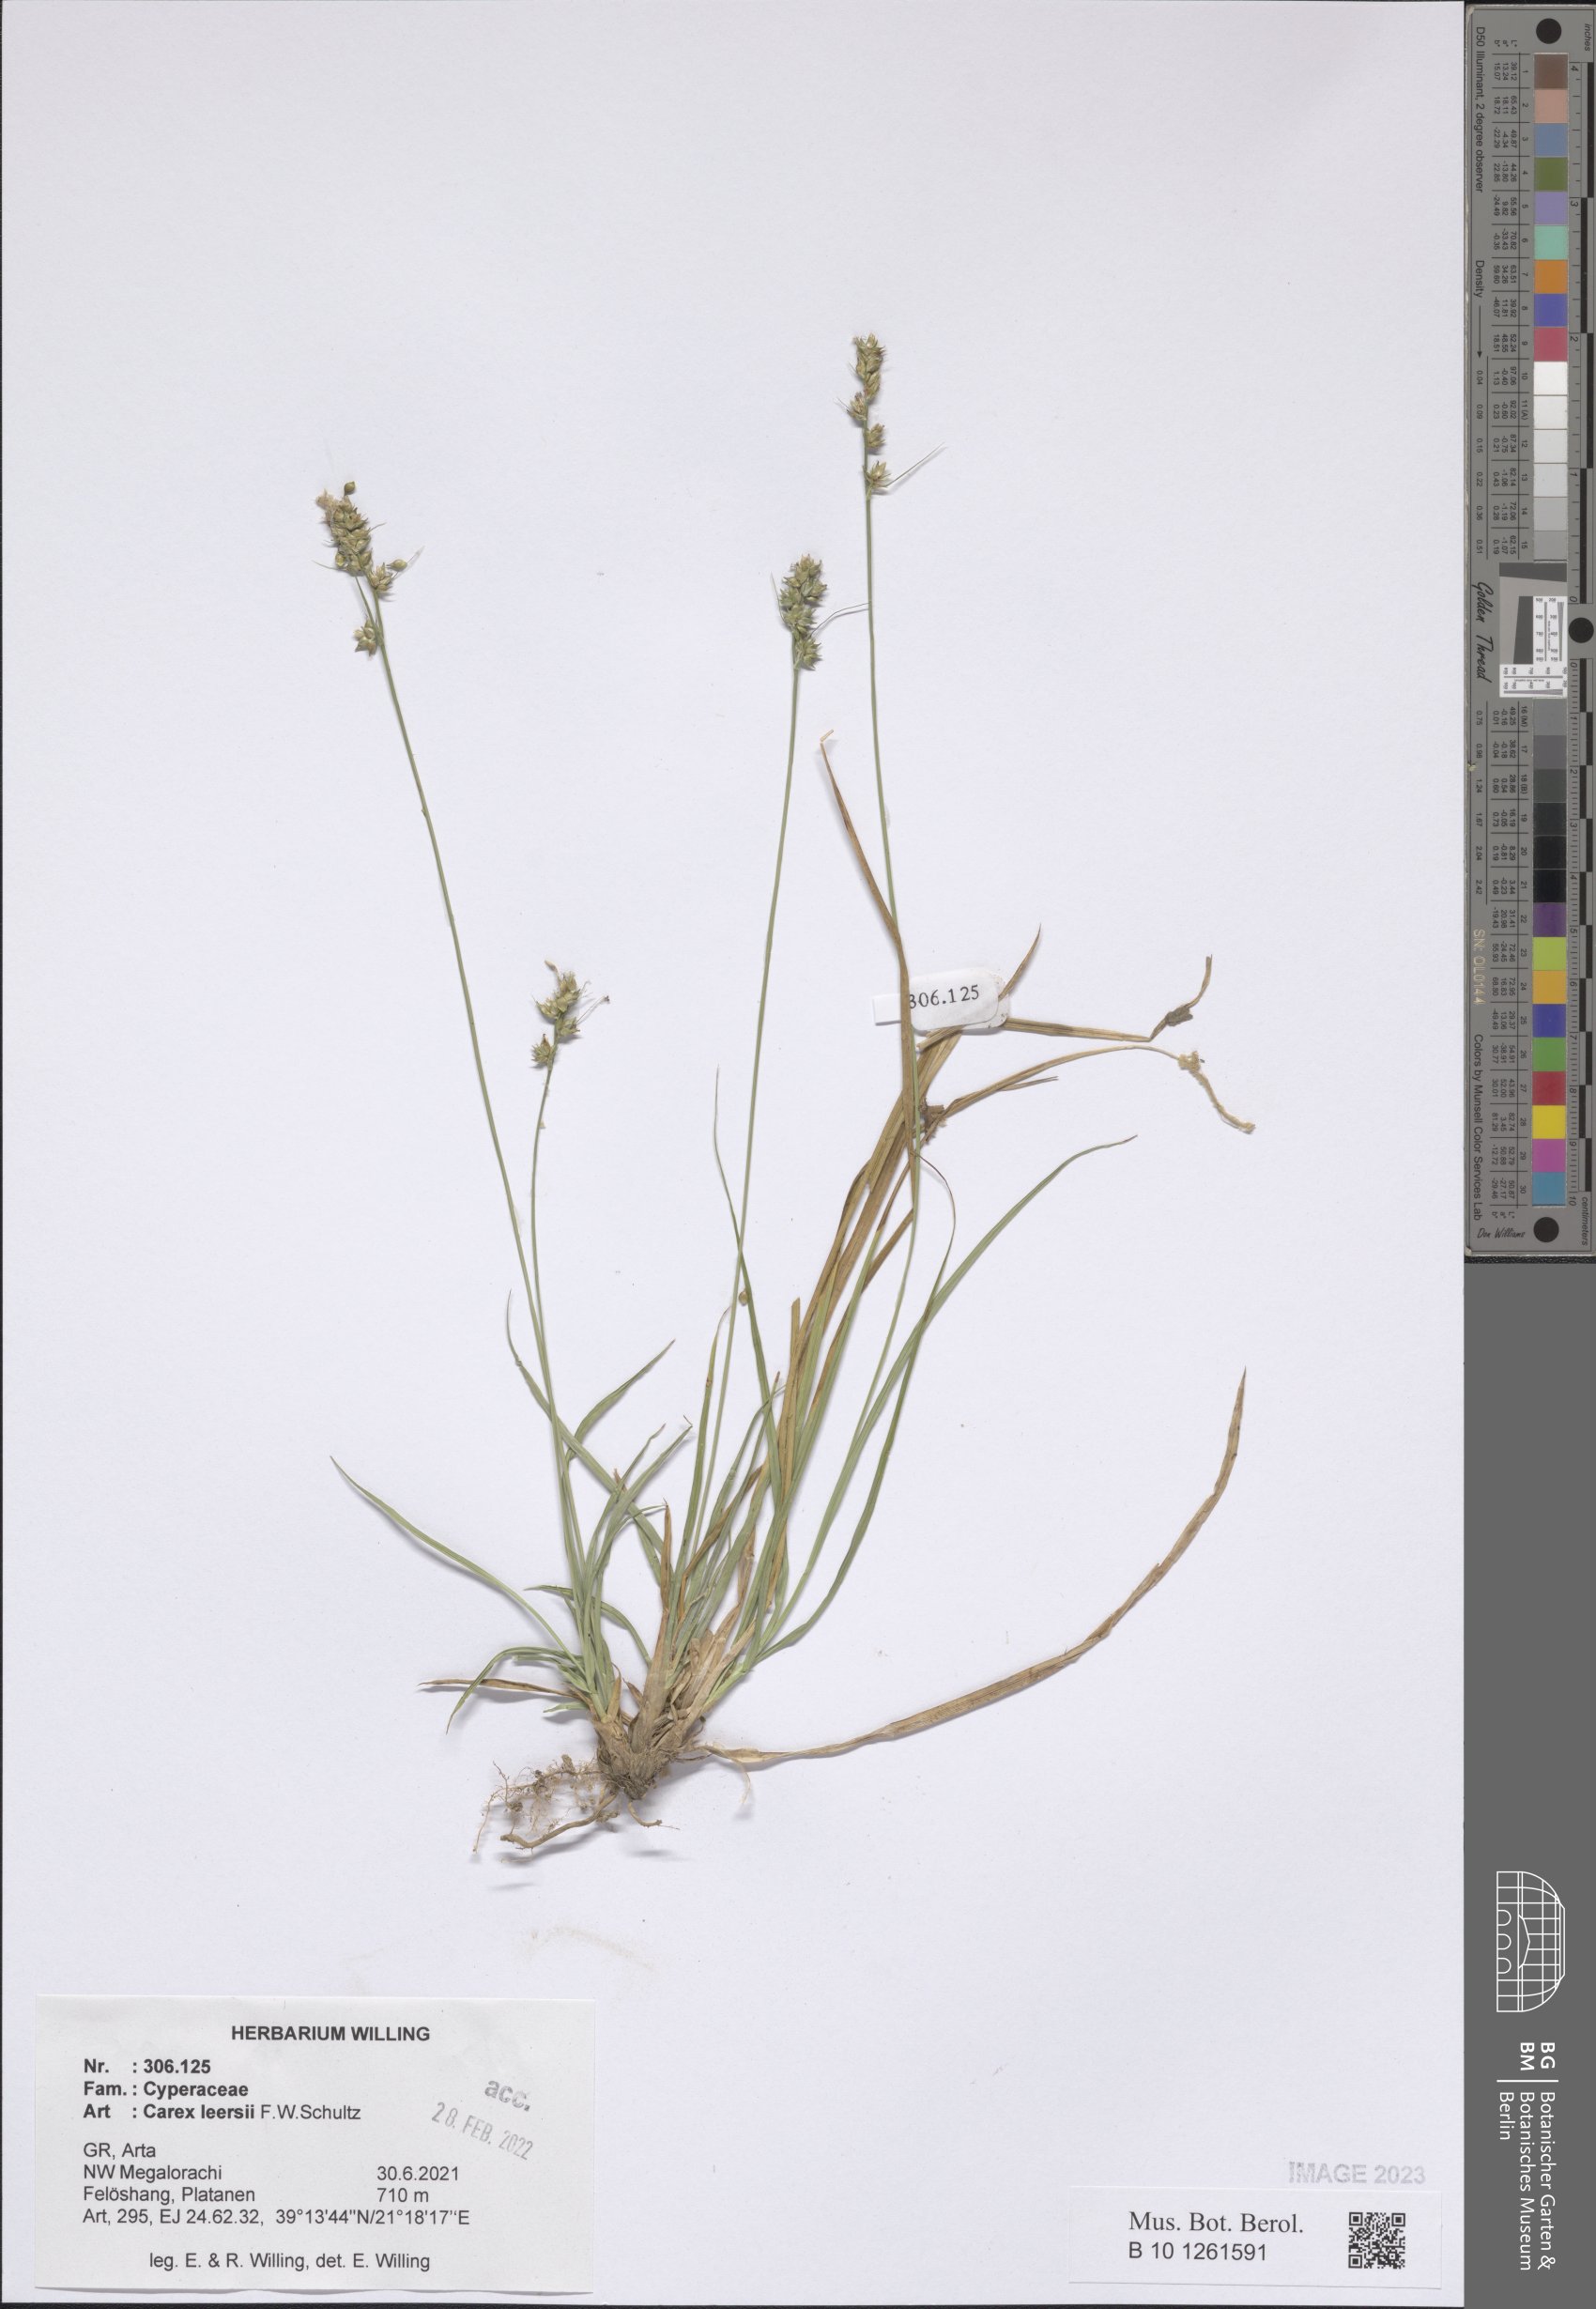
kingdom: Plantae
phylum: Tracheophyta
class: Liliopsida
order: Poales
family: Cyperaceae
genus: Carex
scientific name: Carex leersii
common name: Leers' sedge
